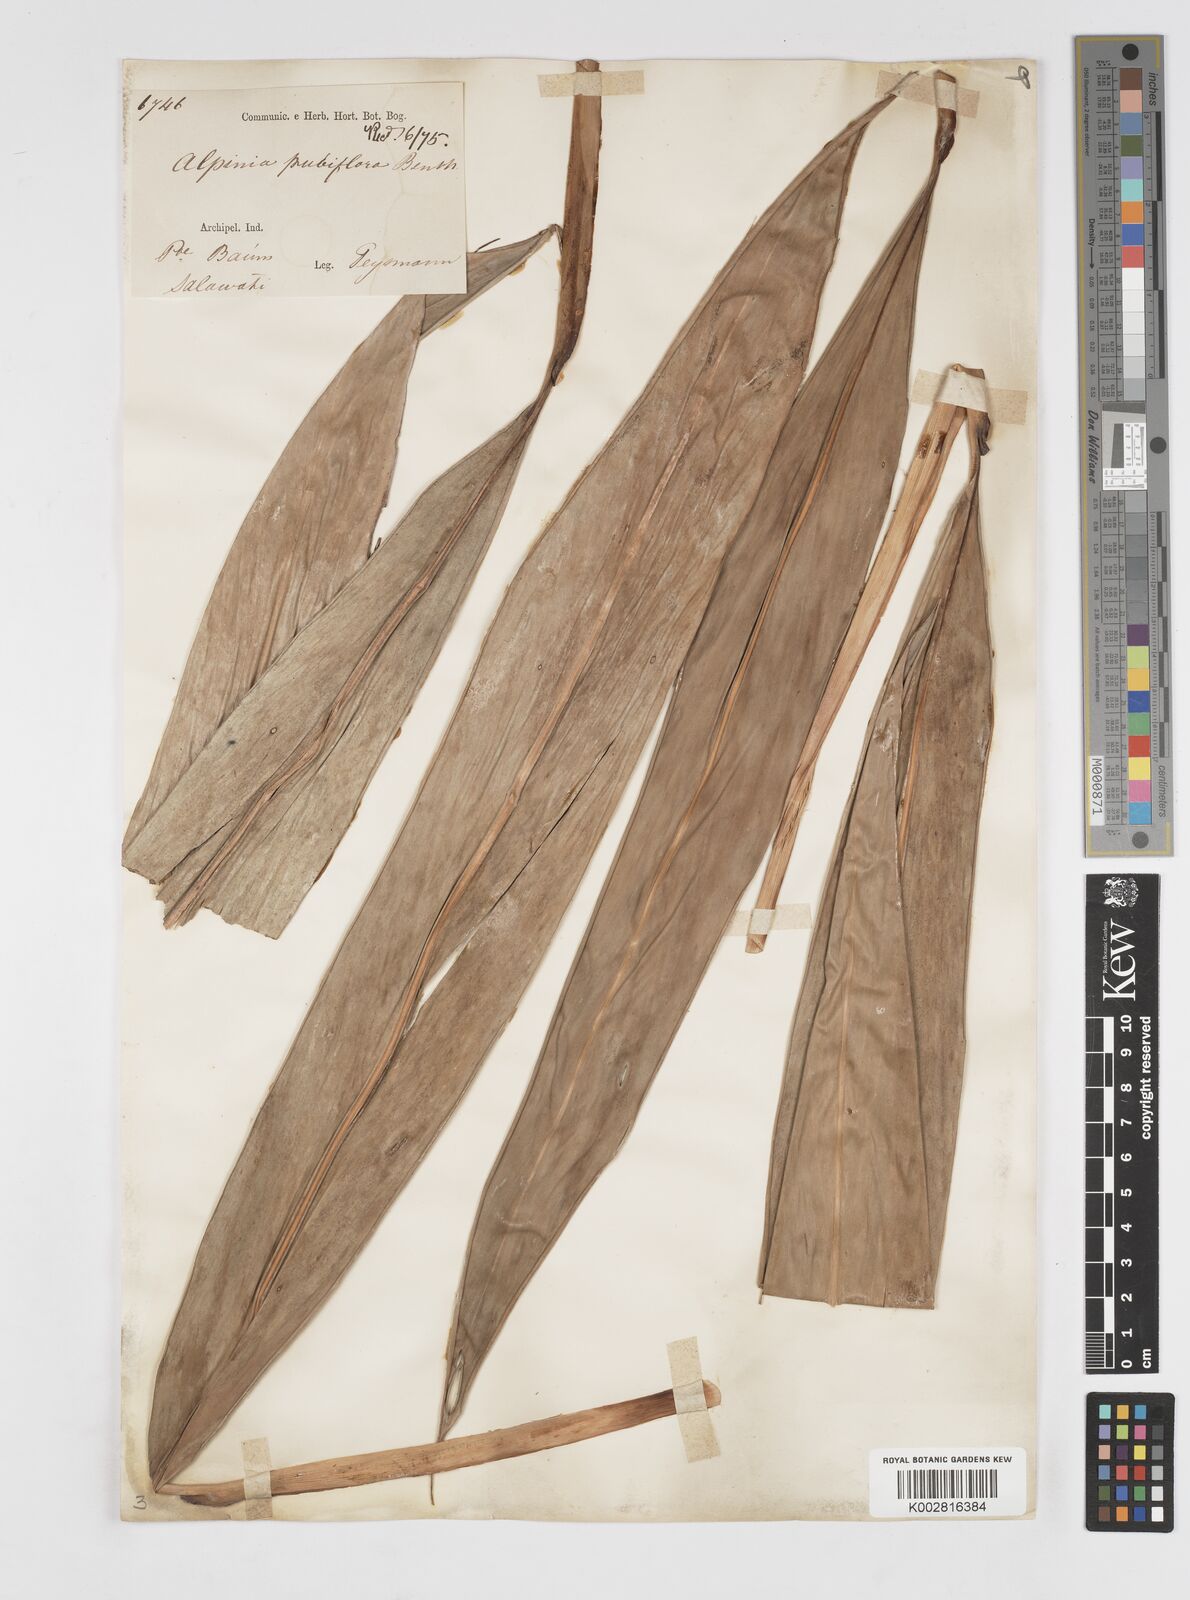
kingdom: Plantae
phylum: Tracheophyta
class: Liliopsida
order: Zingiberales
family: Zingiberaceae
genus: Alpinia
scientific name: Alpinia pubiflora
